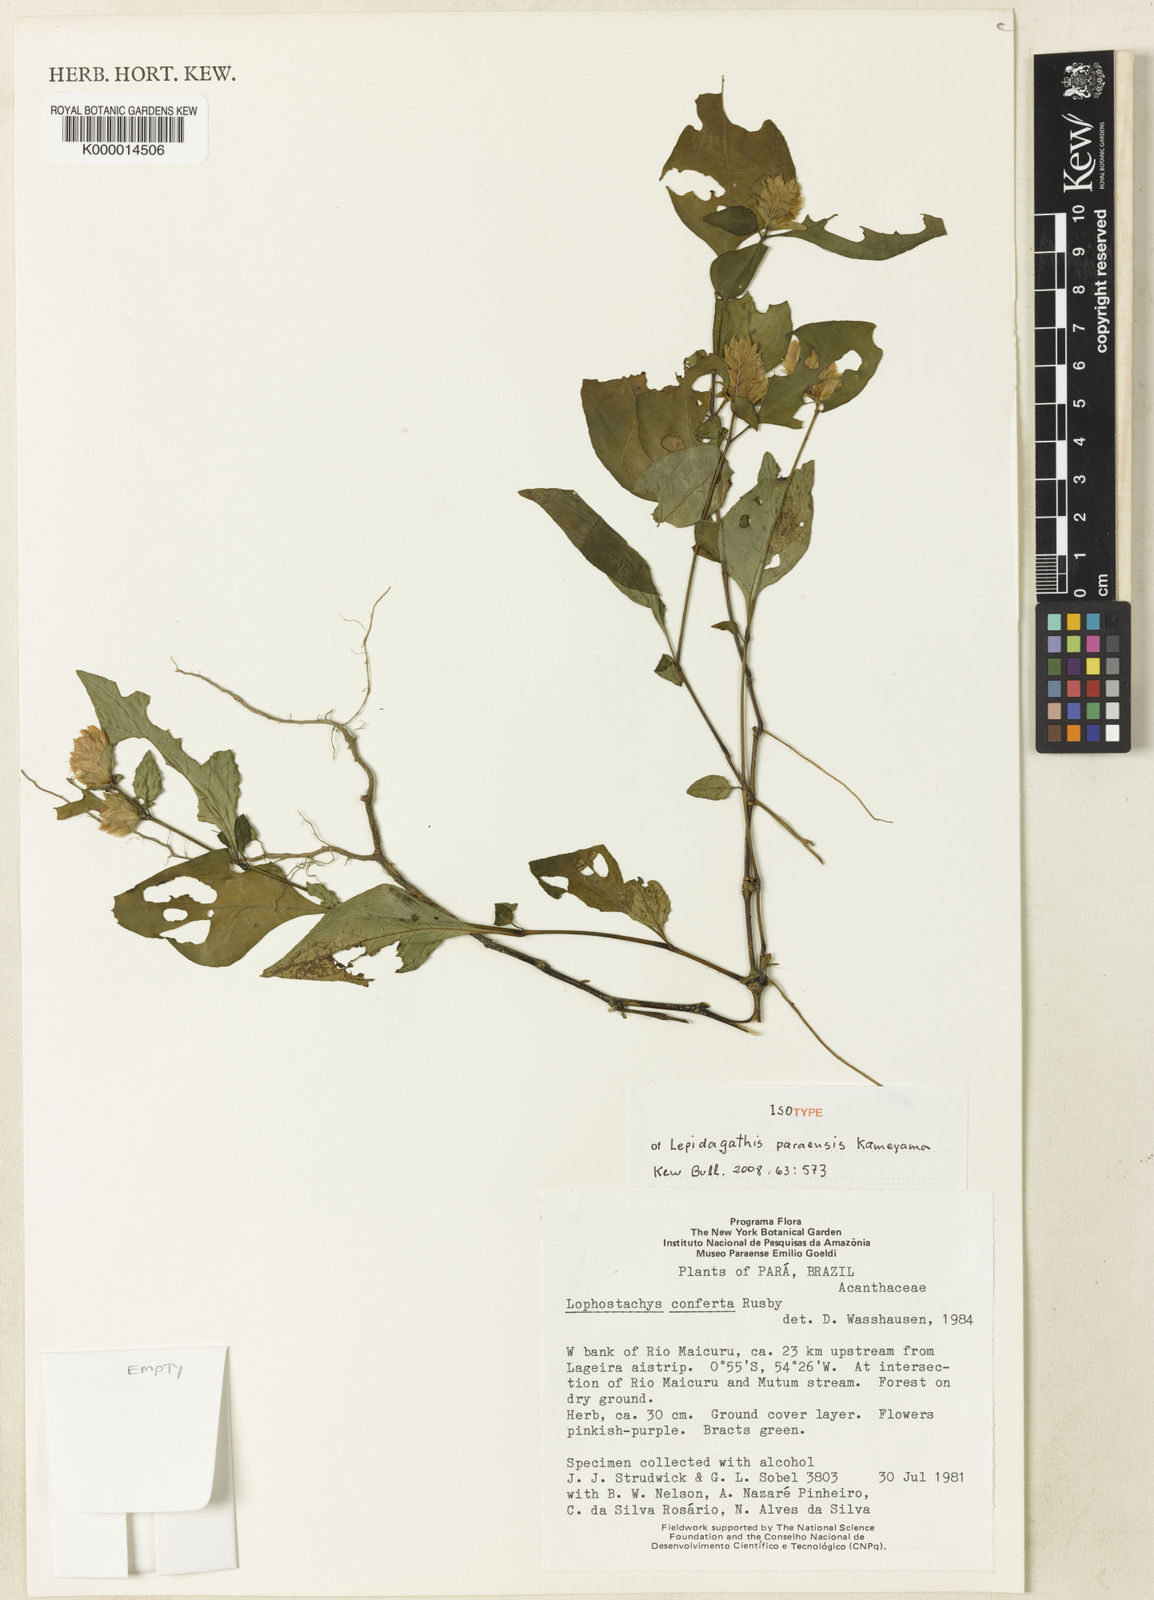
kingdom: Plantae
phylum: Tracheophyta
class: Magnoliopsida
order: Lamiales
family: Acanthaceae
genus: Lepidagathis
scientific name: Lepidagathis paraensis
